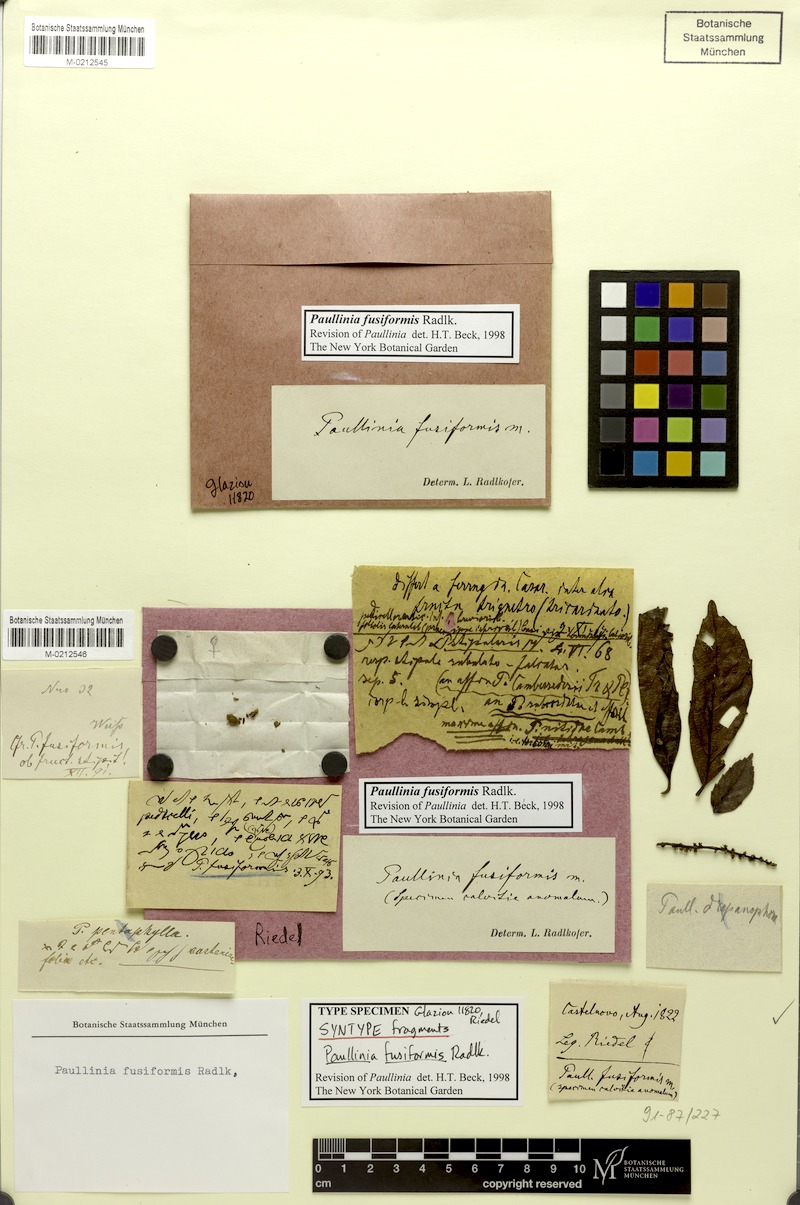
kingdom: Plantae
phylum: Tracheophyta
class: Magnoliopsida
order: Sapindales
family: Sapindaceae
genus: Paullinia
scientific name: Paullinia fusiformis
